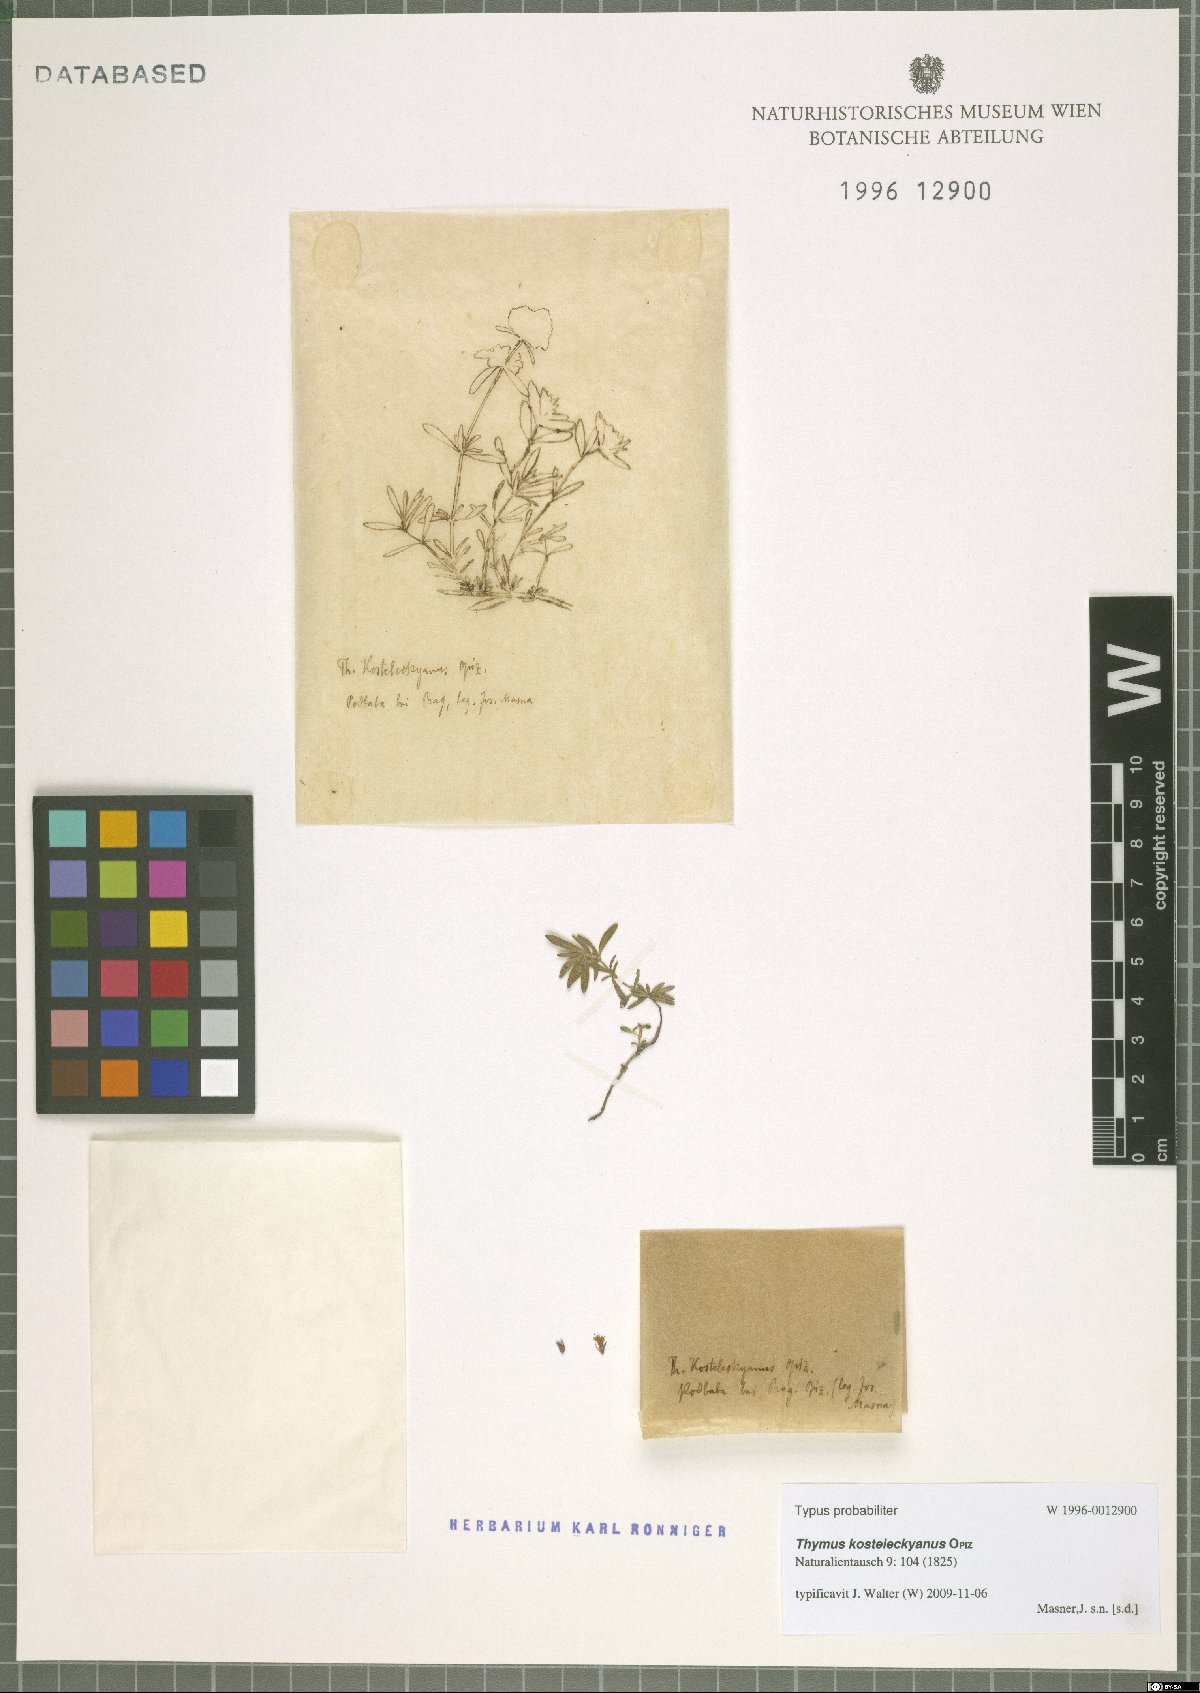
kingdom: Plantae
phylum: Tracheophyta
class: Magnoliopsida
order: Lamiales
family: Lamiaceae
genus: Thymus
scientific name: Thymus kosteleckyanus
